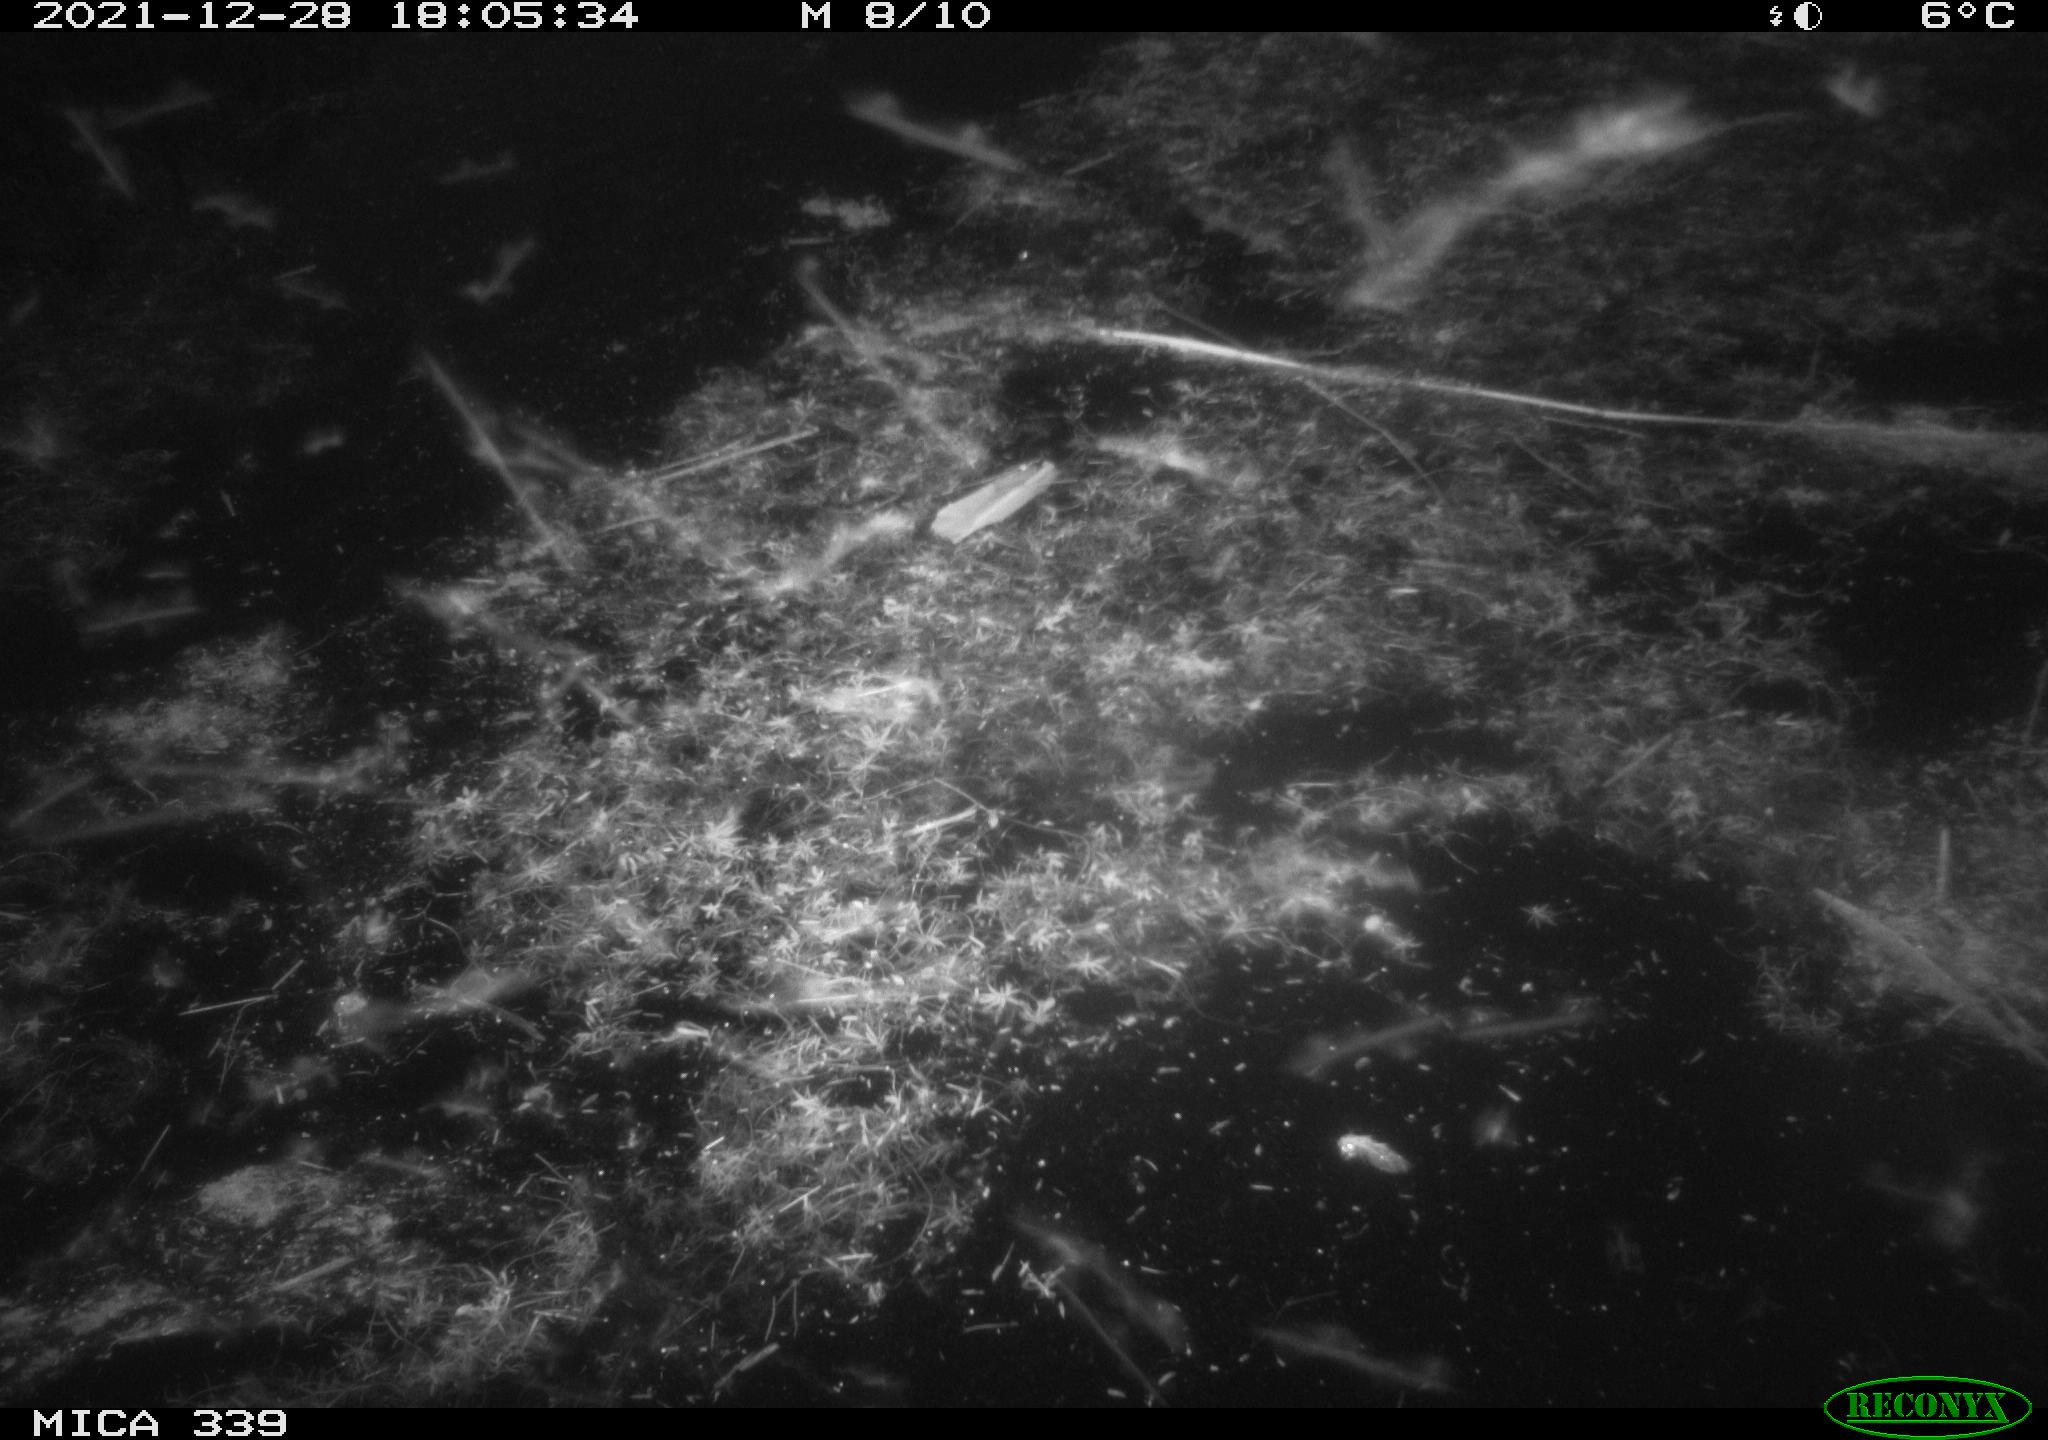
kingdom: Animalia
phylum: Chordata
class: Aves
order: Gruiformes
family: Rallidae
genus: Gallinula
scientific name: Gallinula chloropus
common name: Common moorhen
